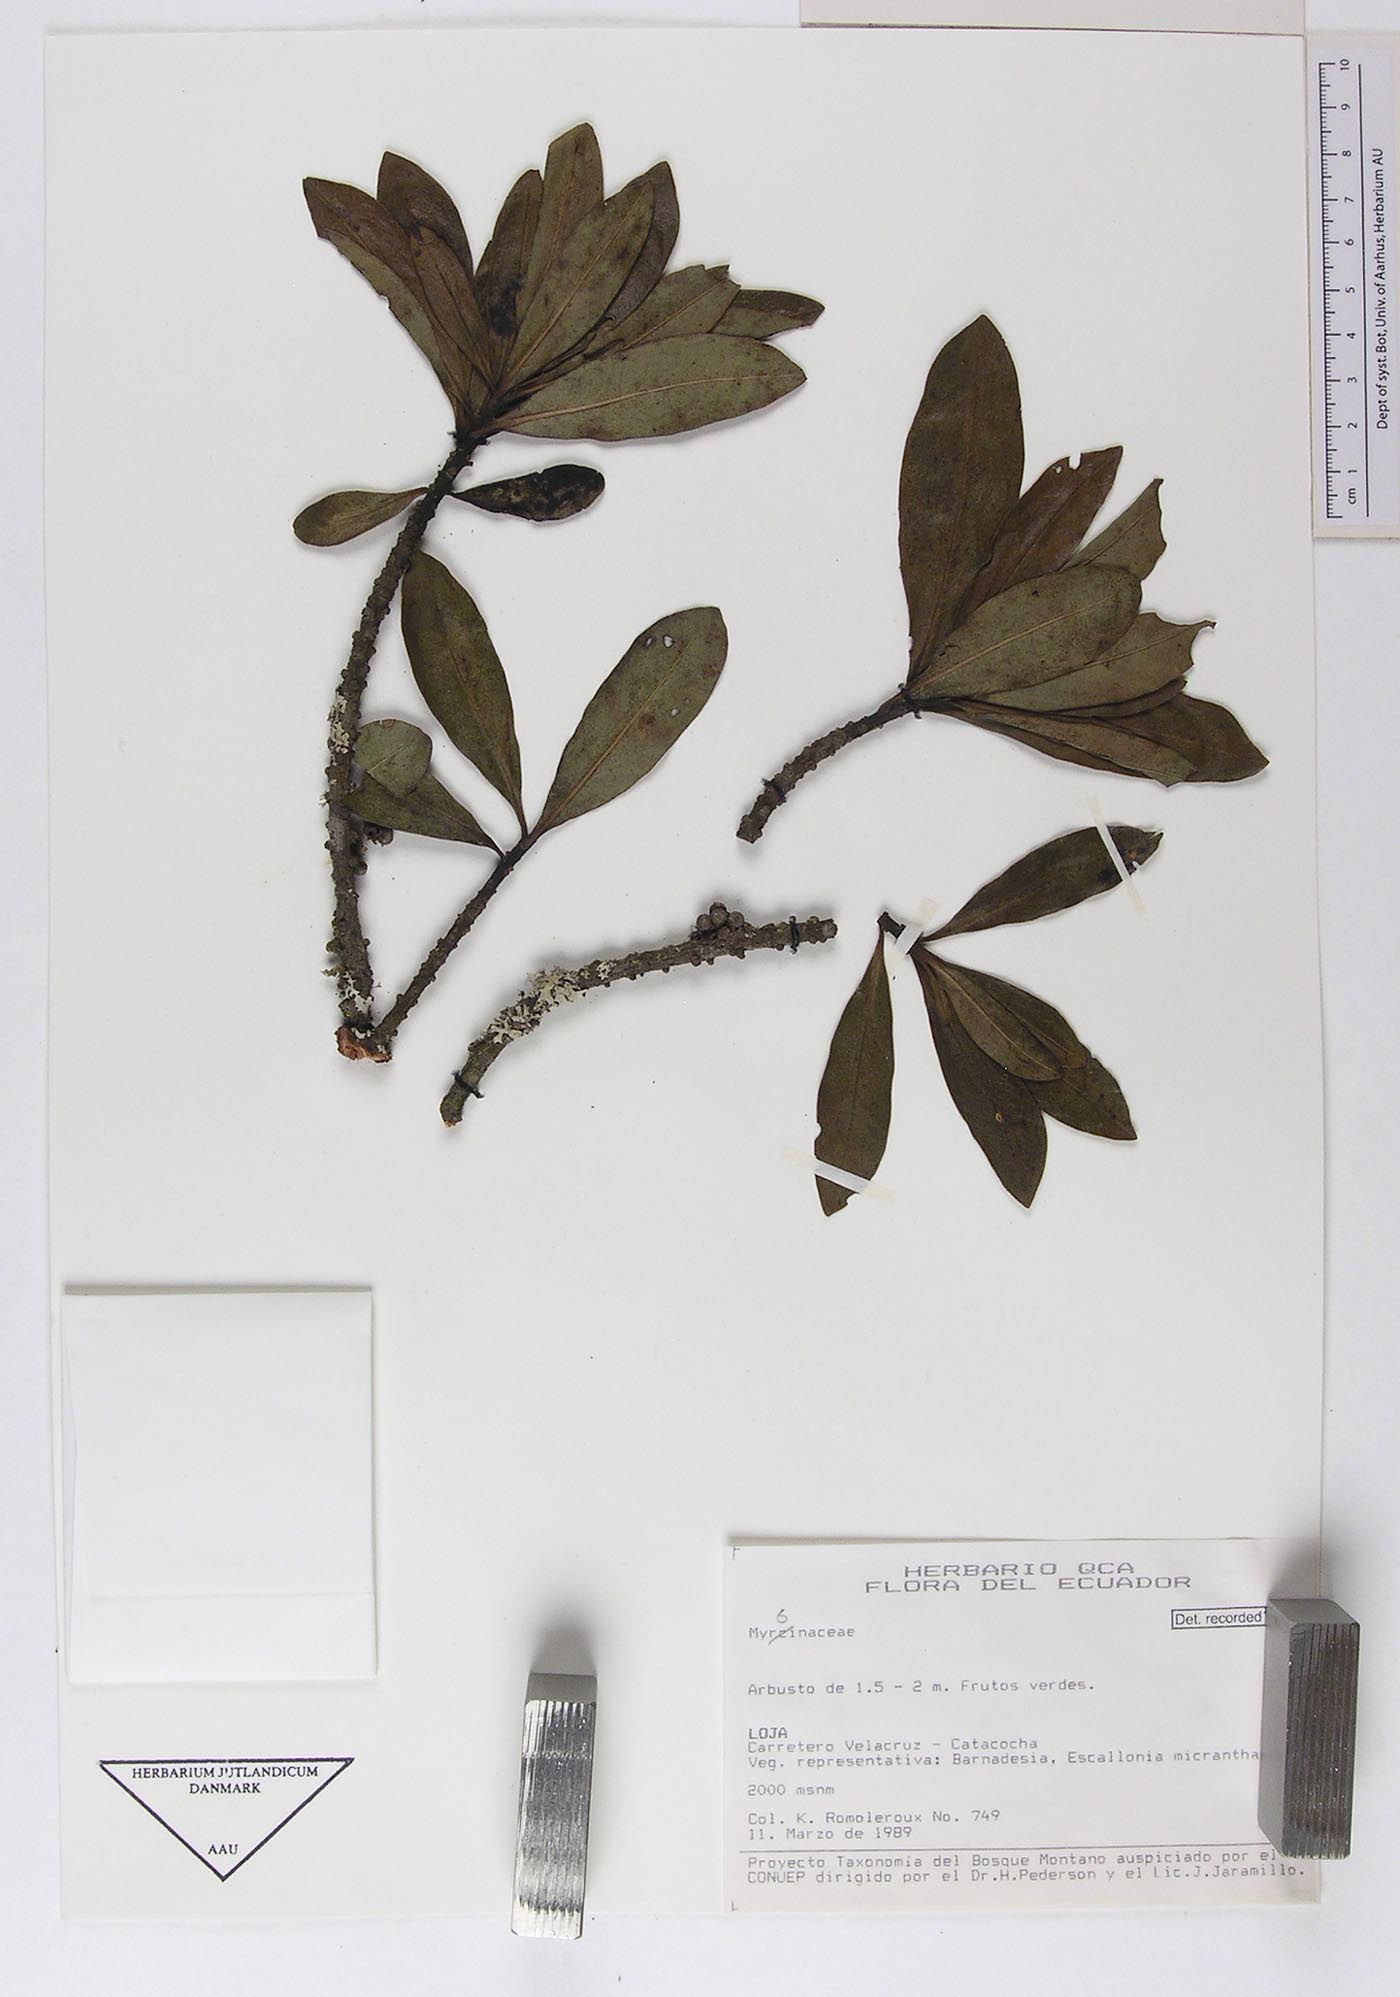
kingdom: Plantae
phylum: Tracheophyta
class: Magnoliopsida
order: Ericales
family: Primulaceae
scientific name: Primulaceae
